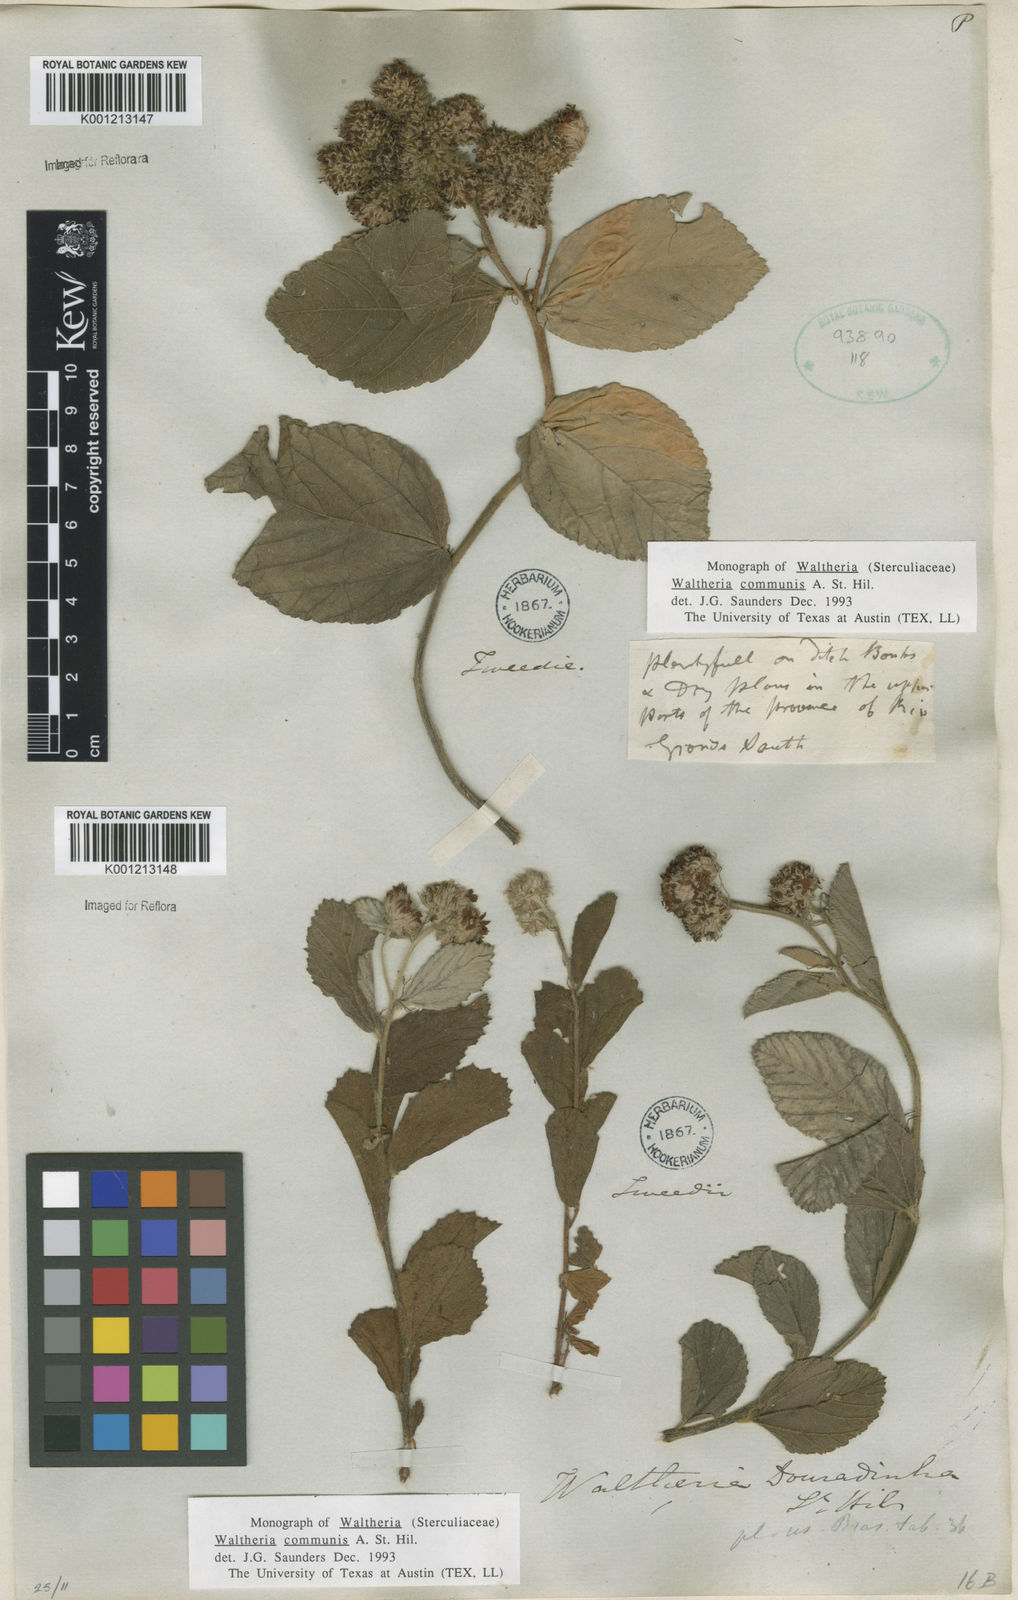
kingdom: Plantae
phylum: Tracheophyta
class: Magnoliopsida
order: Malvales
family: Malvaceae
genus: Waltheria
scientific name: Waltheria communis
